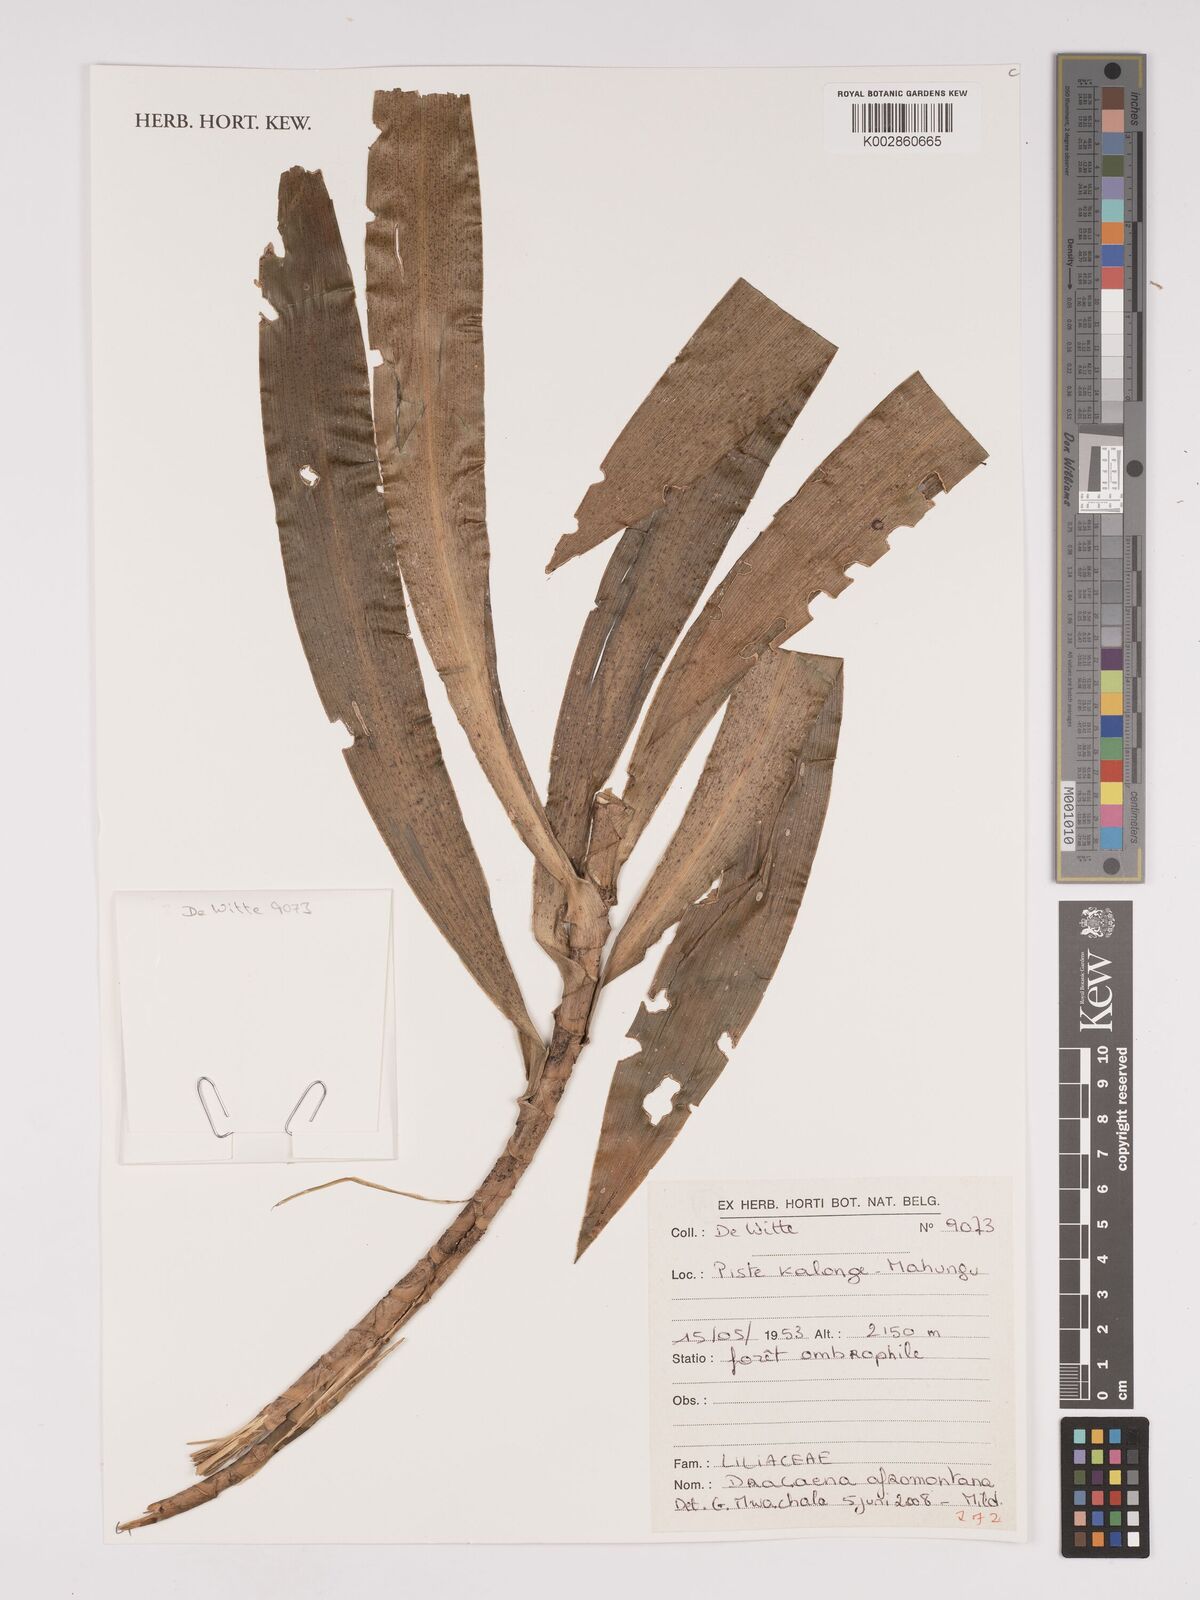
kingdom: Plantae
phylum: Tracheophyta
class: Liliopsida
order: Asparagales
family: Asparagaceae
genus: Dracaena
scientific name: Dracaena afromontana
